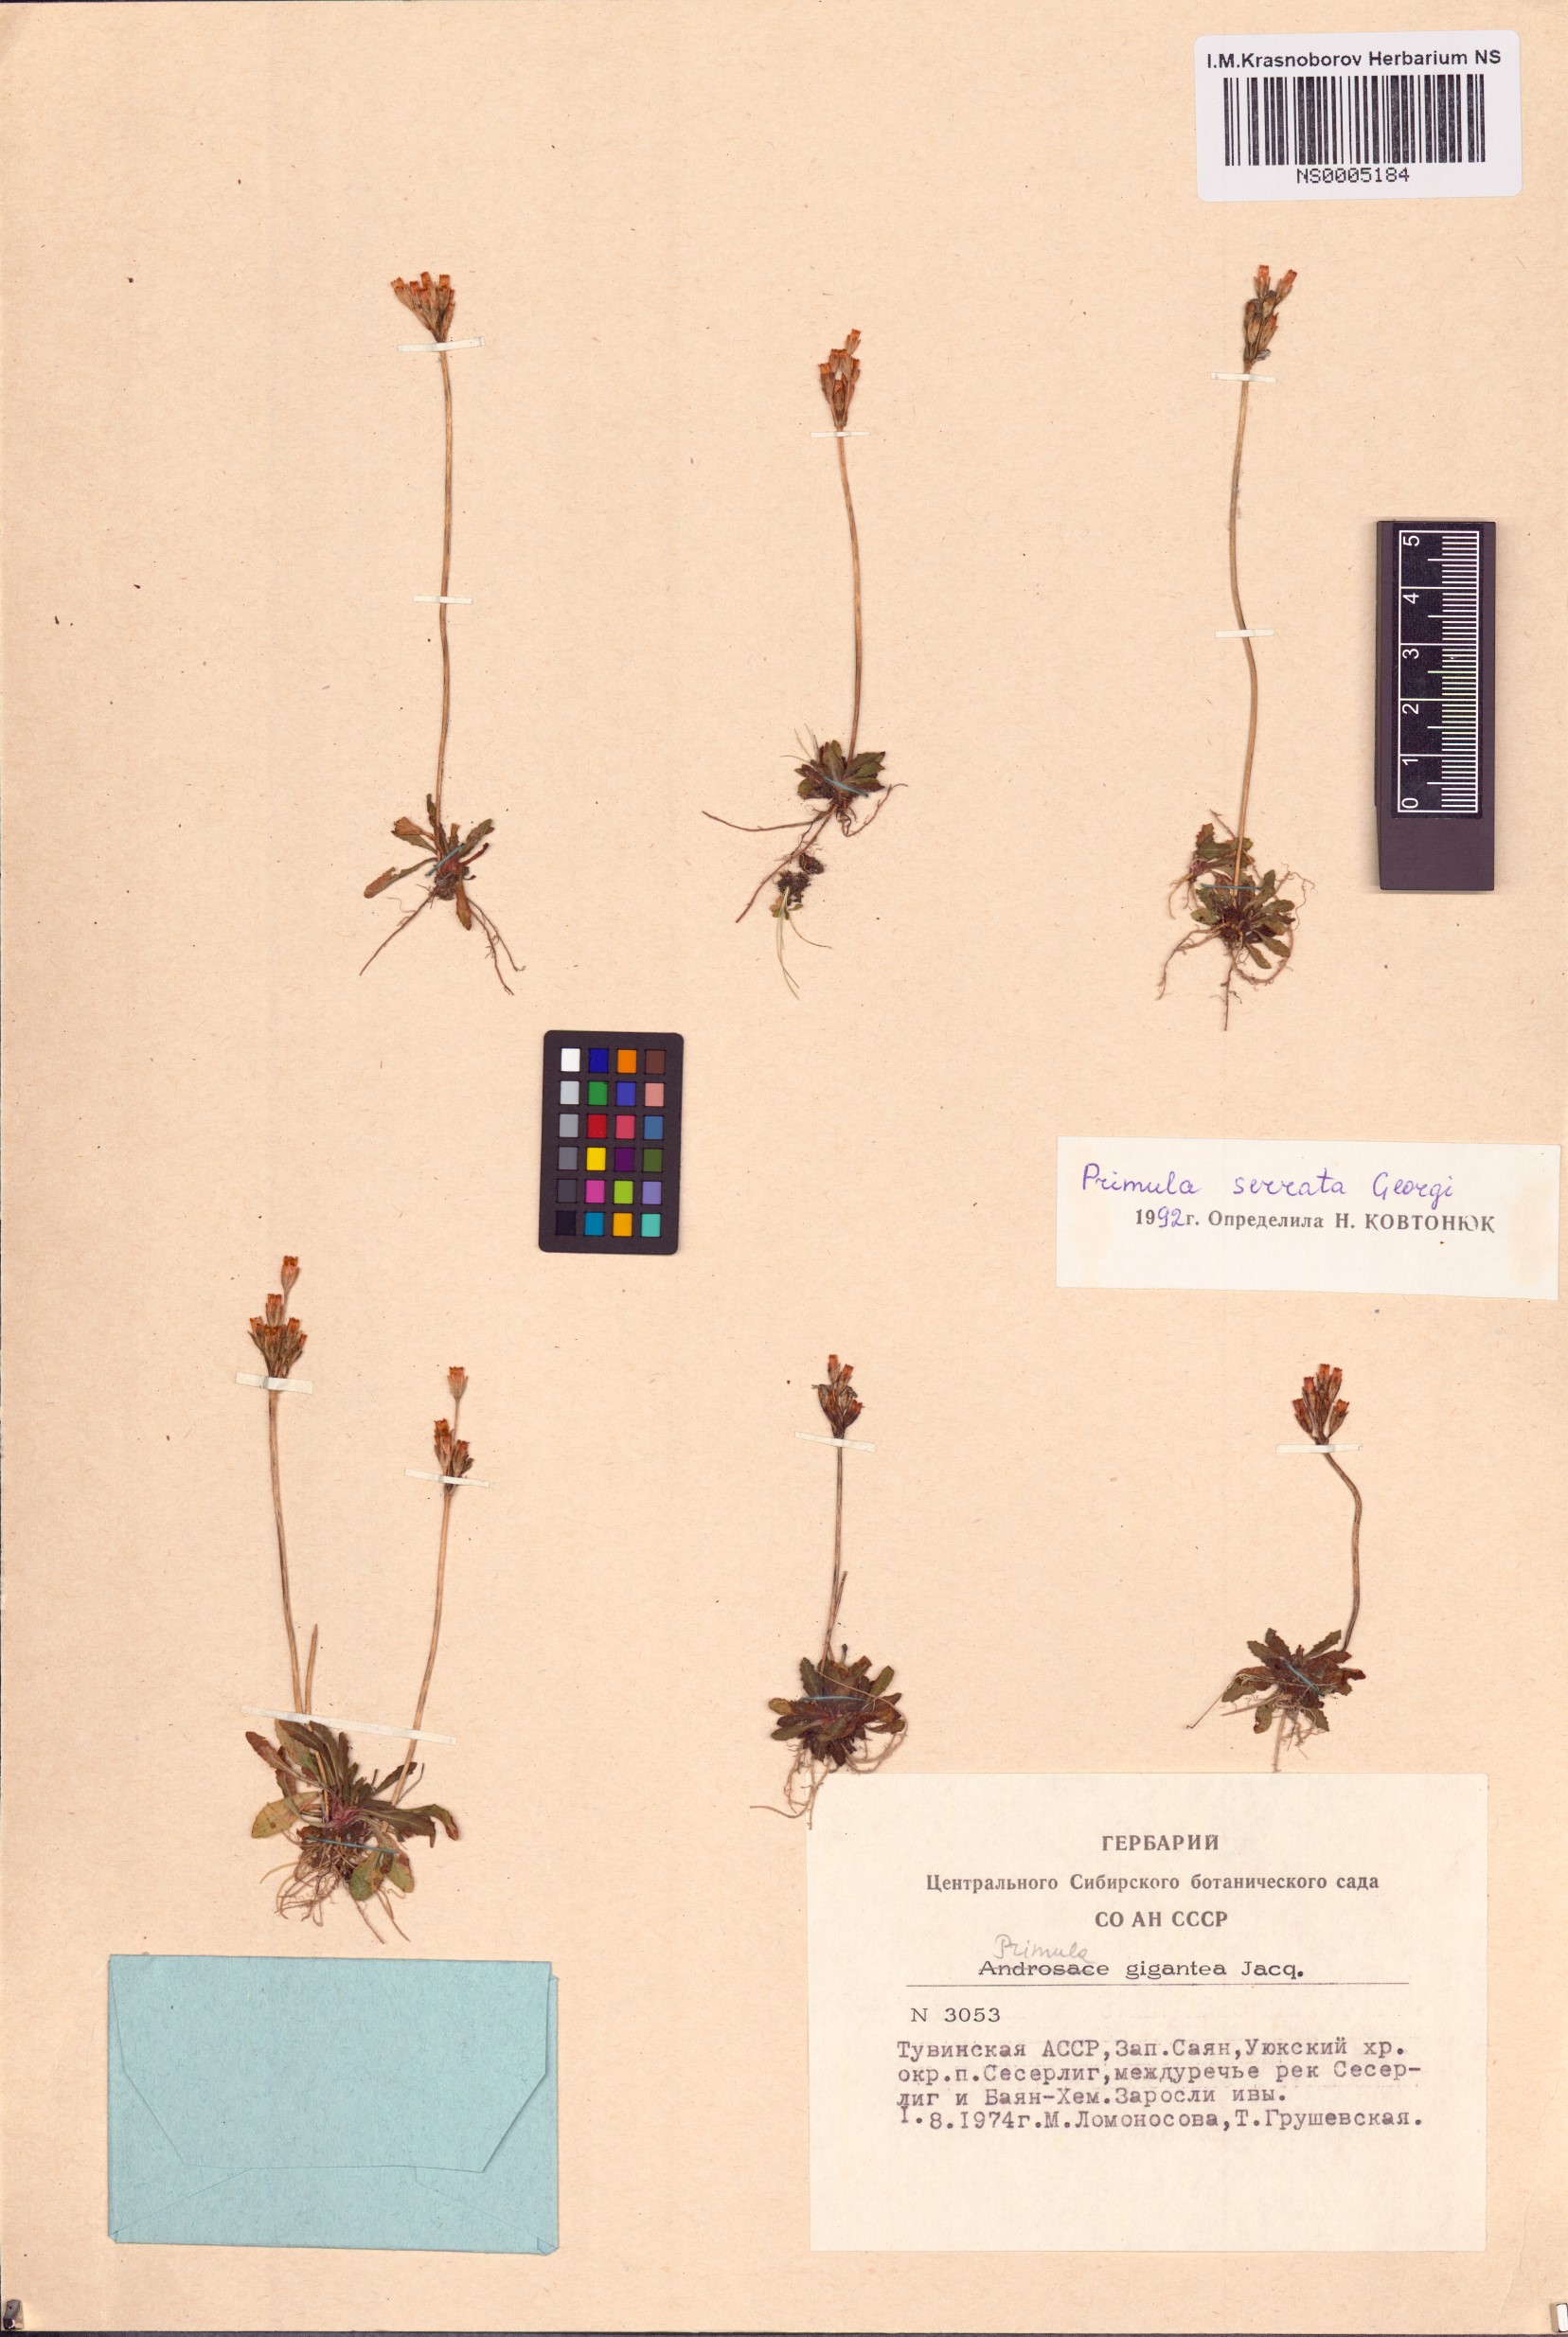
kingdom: Plantae
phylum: Tracheophyta
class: Magnoliopsida
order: Ericales
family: Primulaceae
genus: Primula
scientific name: Primula serrata
